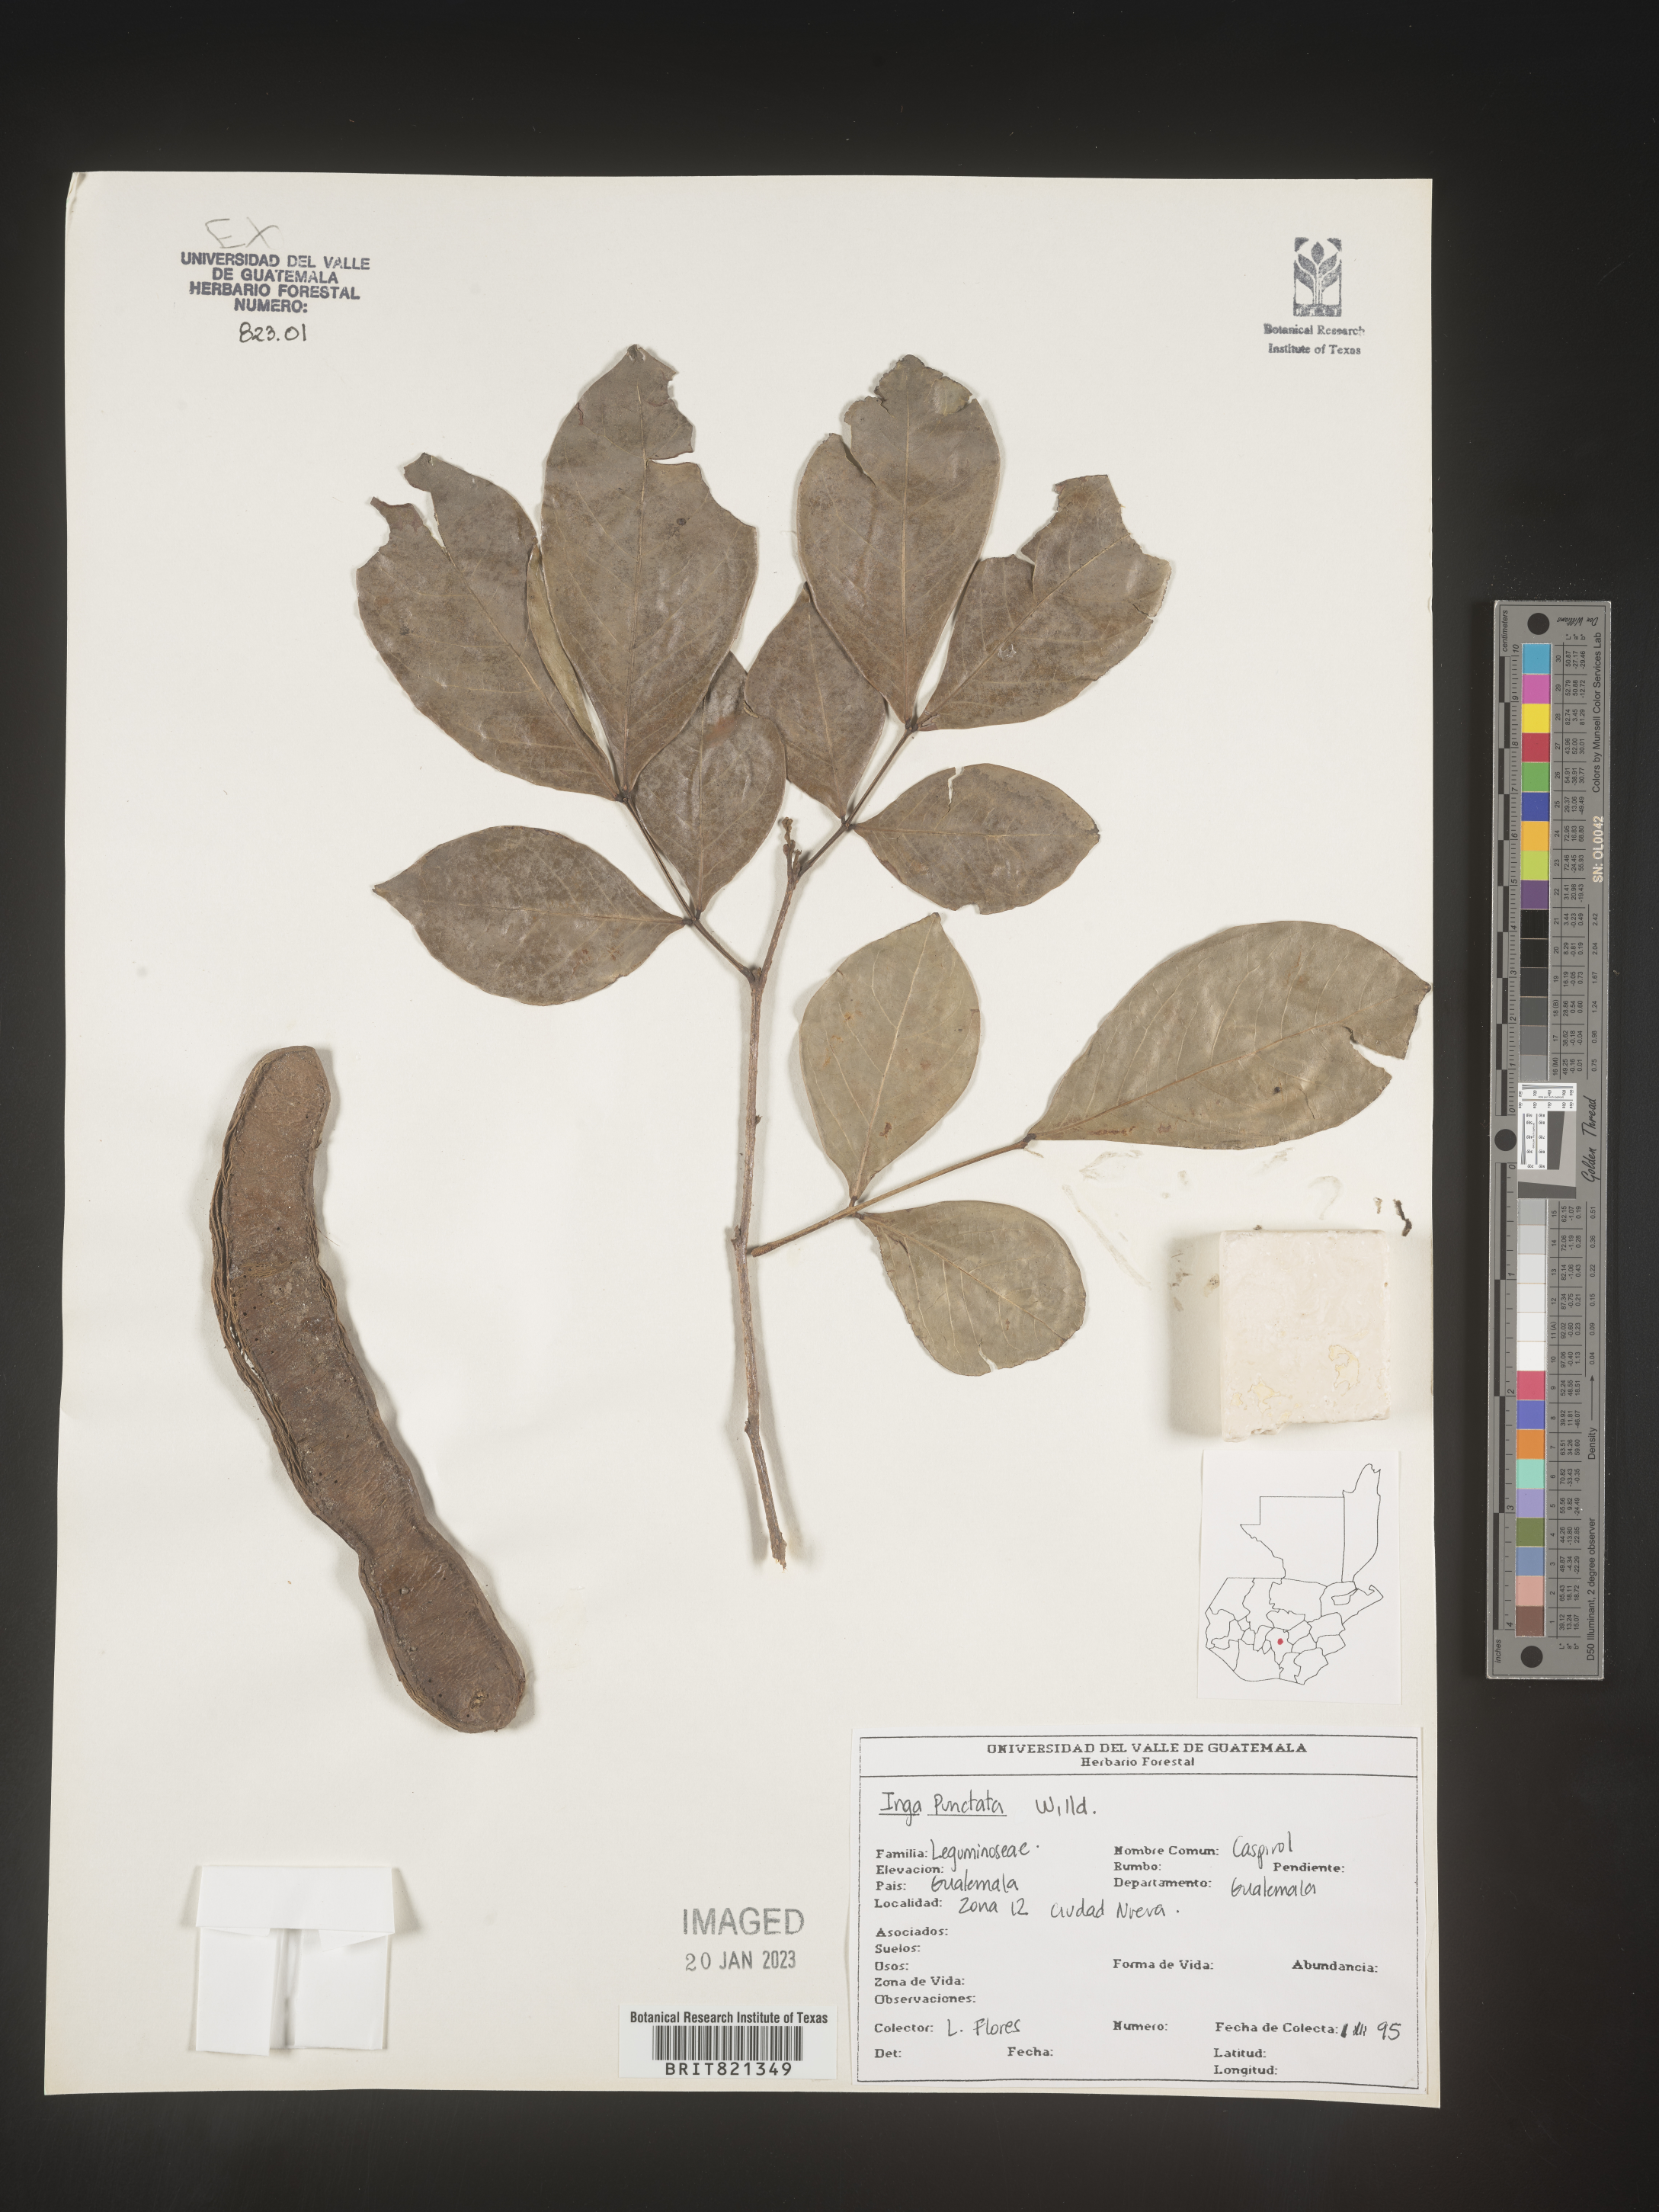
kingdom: Plantae
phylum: Tracheophyta
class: Magnoliopsida
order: Fabales
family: Fabaceae
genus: Inga
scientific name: Inga
